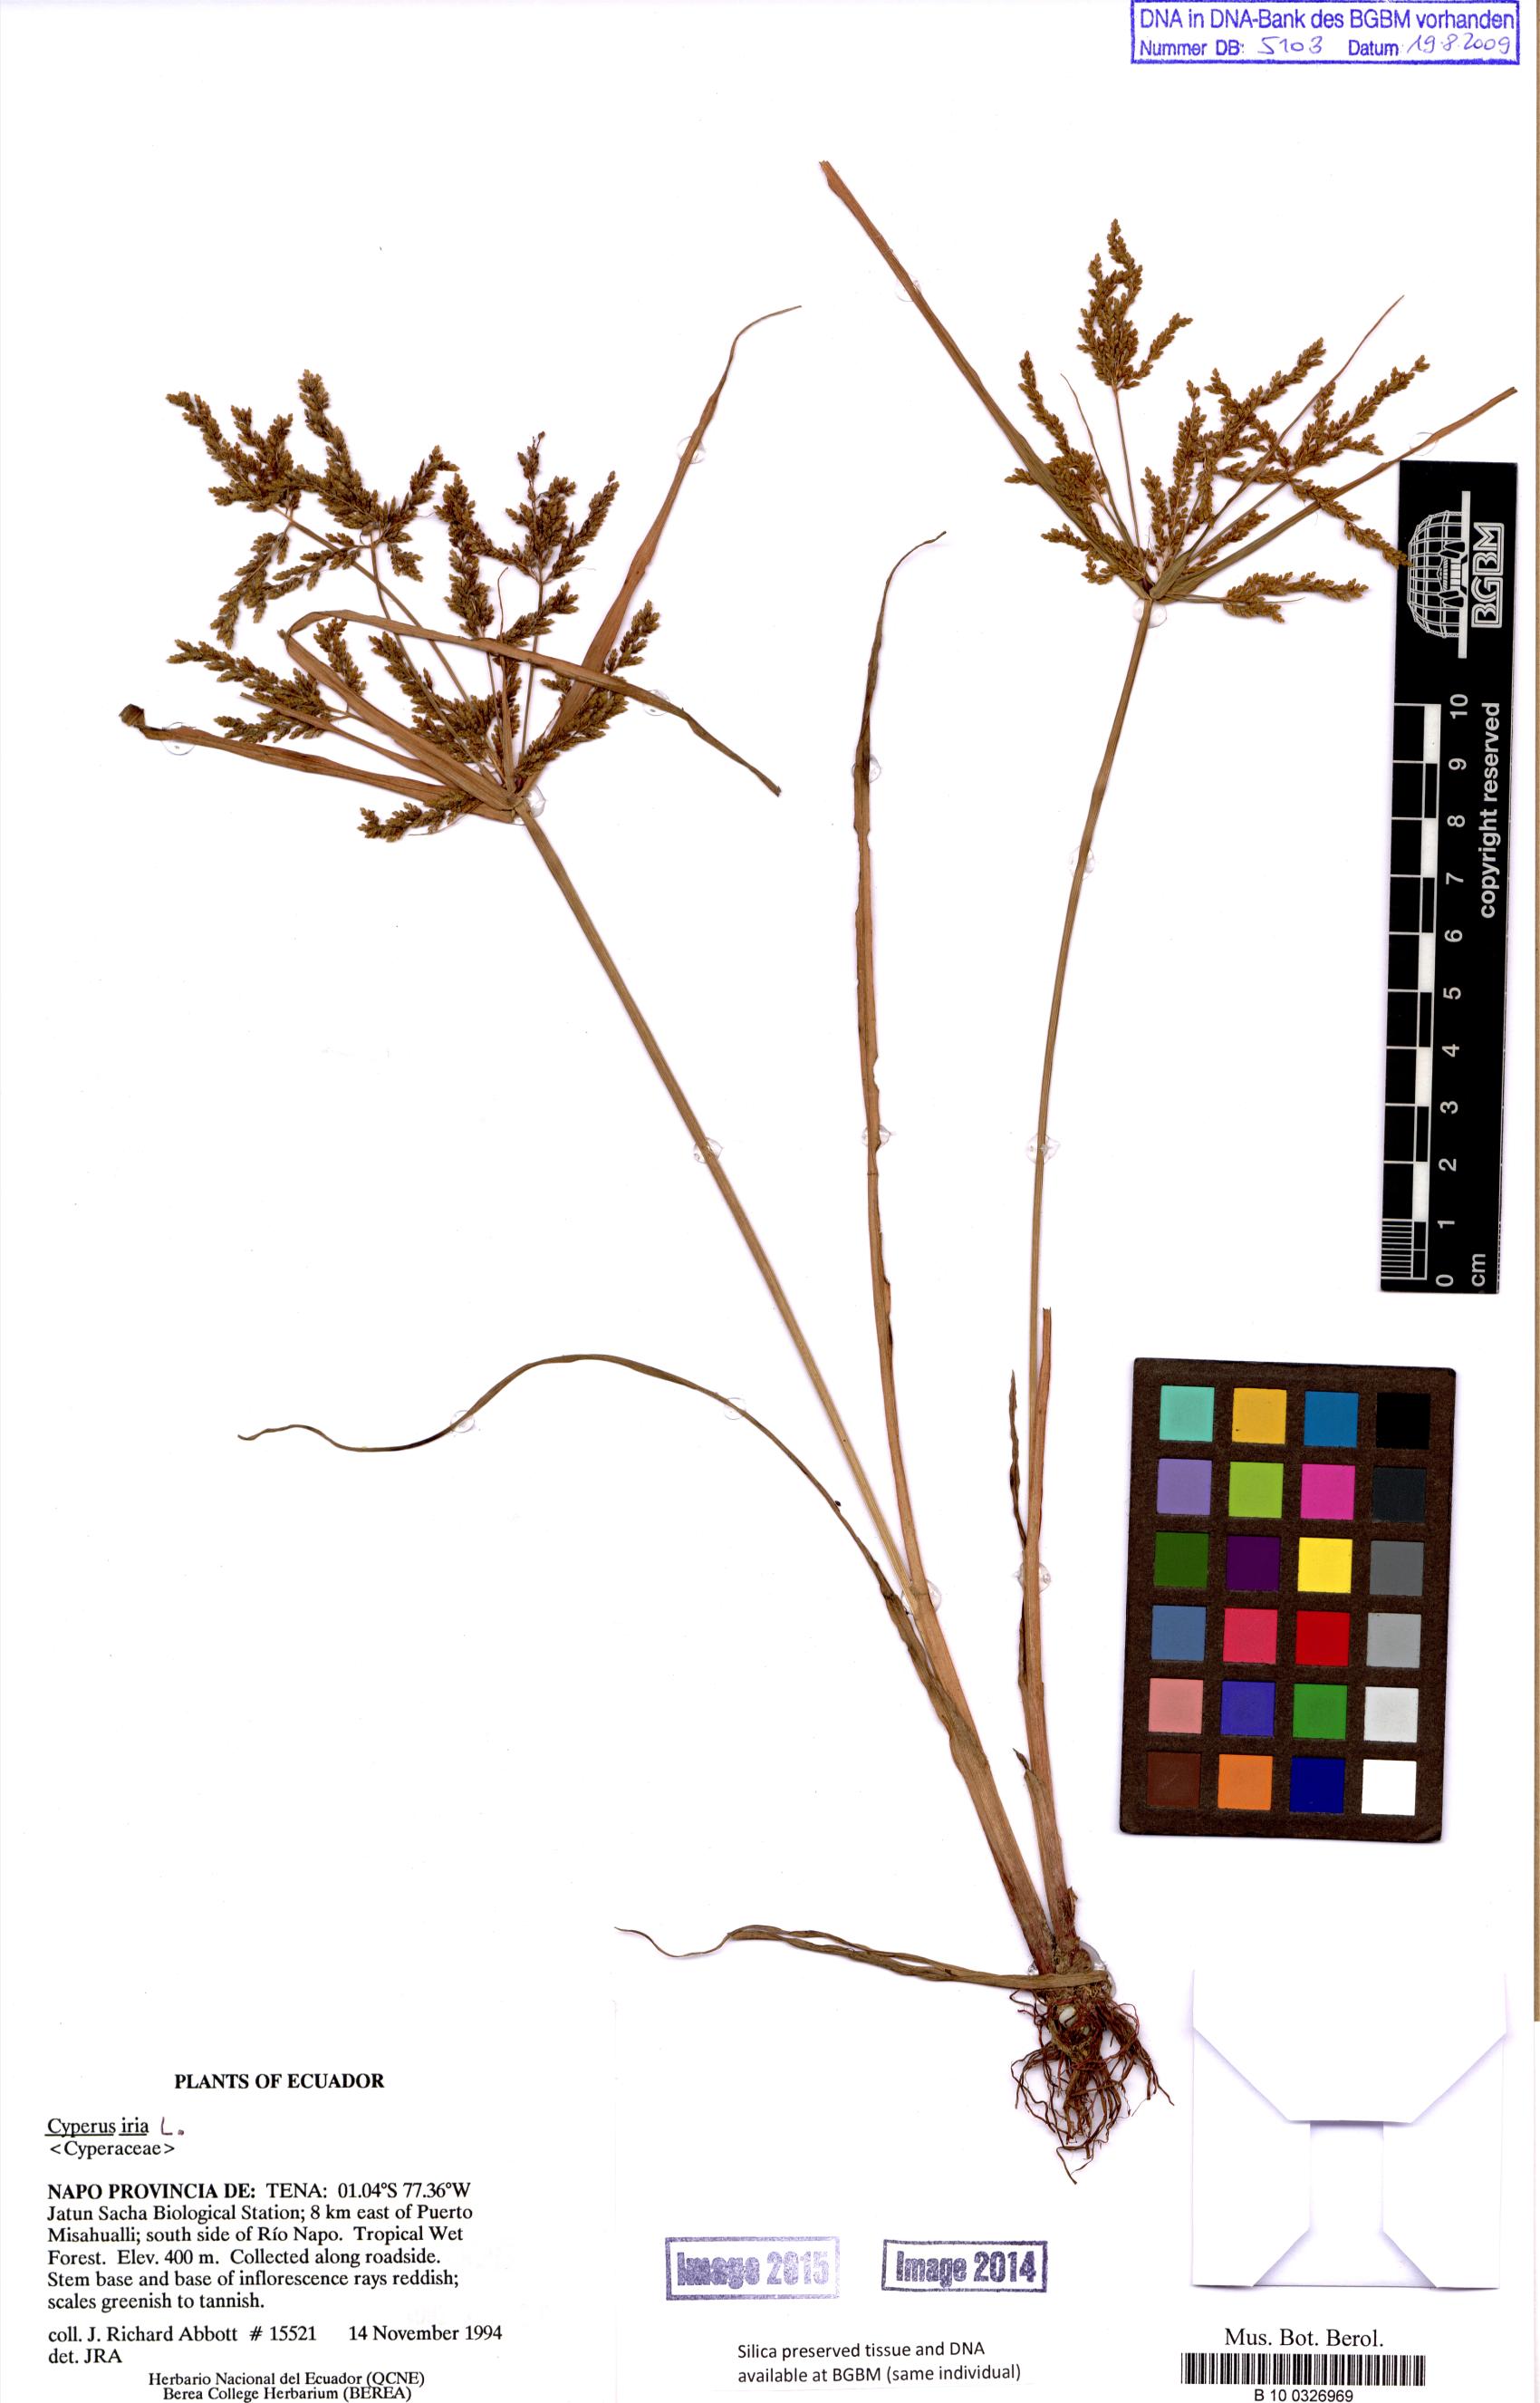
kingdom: Plantae
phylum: Tracheophyta
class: Liliopsida
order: Poales
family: Cyperaceae
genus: Cyperus
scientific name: Cyperus iria
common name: Ricefield flatsedge
